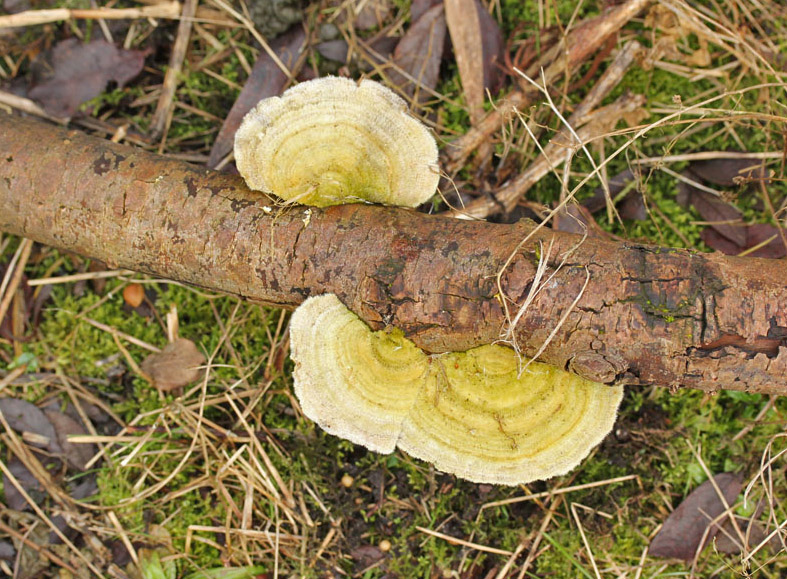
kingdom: Fungi
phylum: Basidiomycota
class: Agaricomycetes
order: Polyporales
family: Polyporaceae
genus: Trametes
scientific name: Trametes hirsuta
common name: håret læderporesvamp
